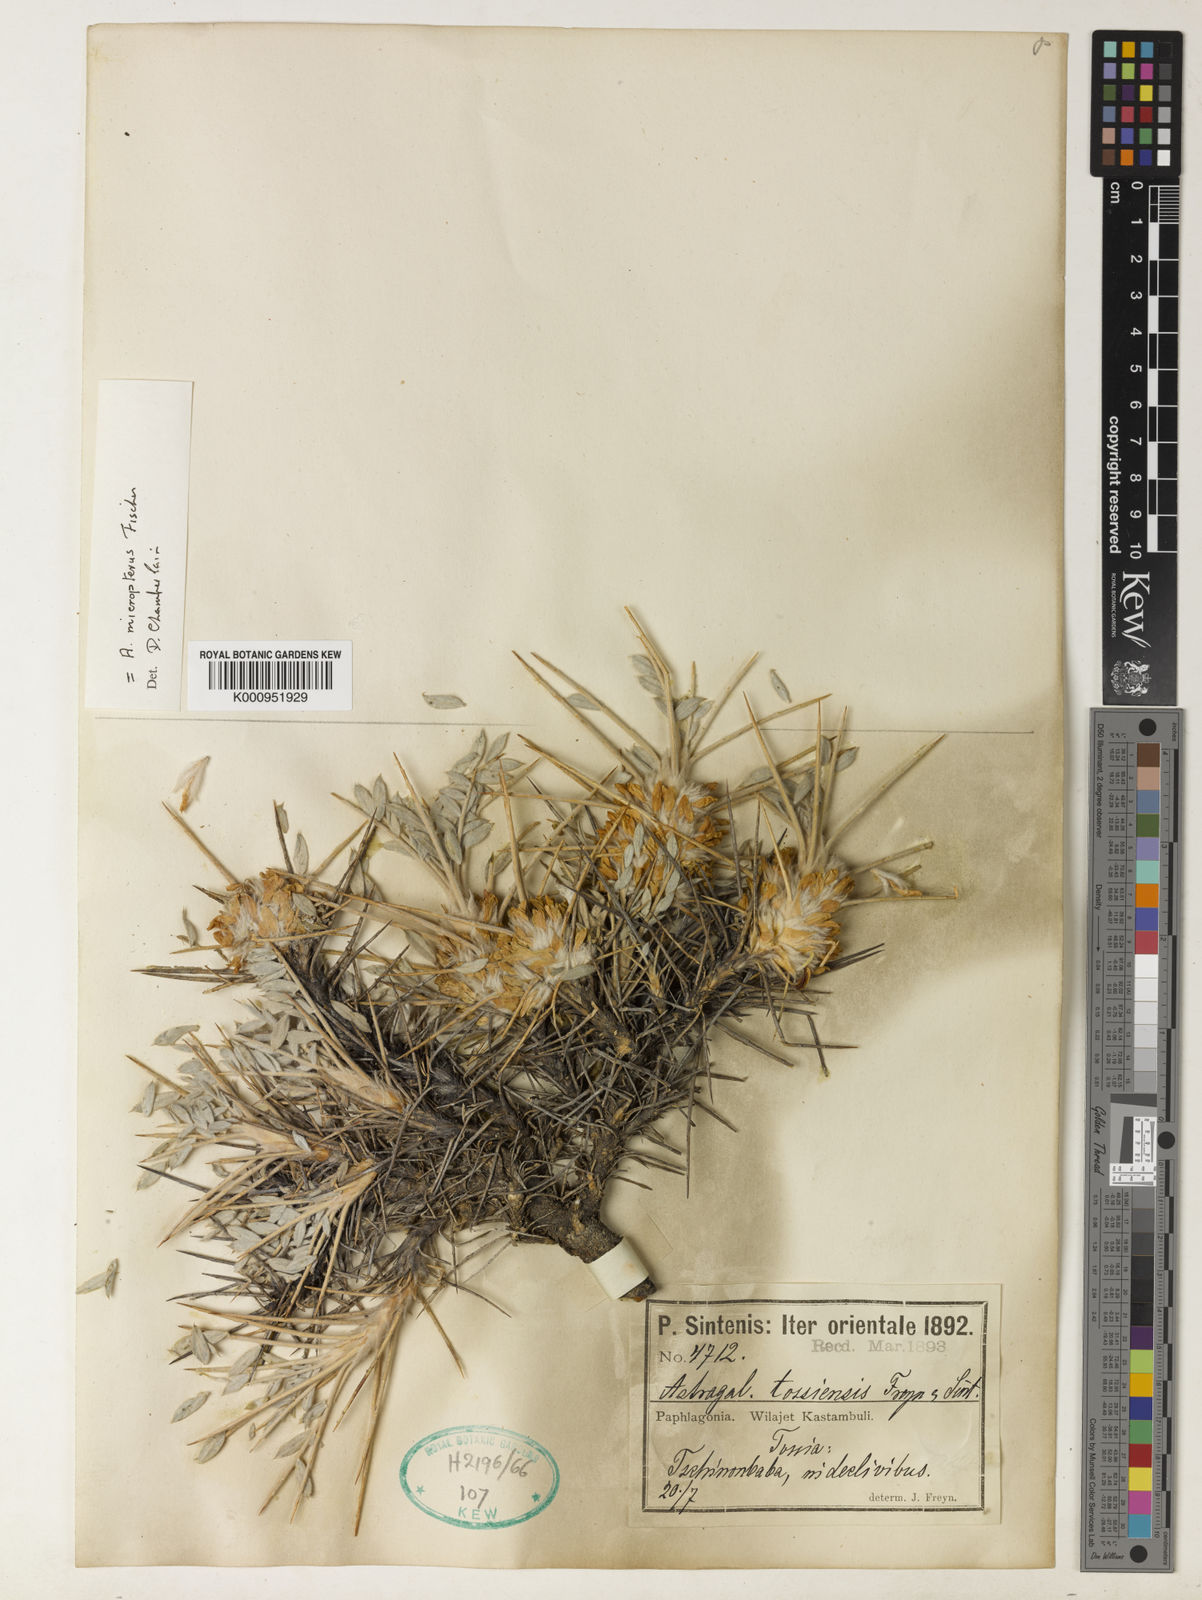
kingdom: Plantae
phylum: Tracheophyta
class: Magnoliopsida
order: Fabales
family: Fabaceae
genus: Astragalus
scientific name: Astragalus strictifolius
